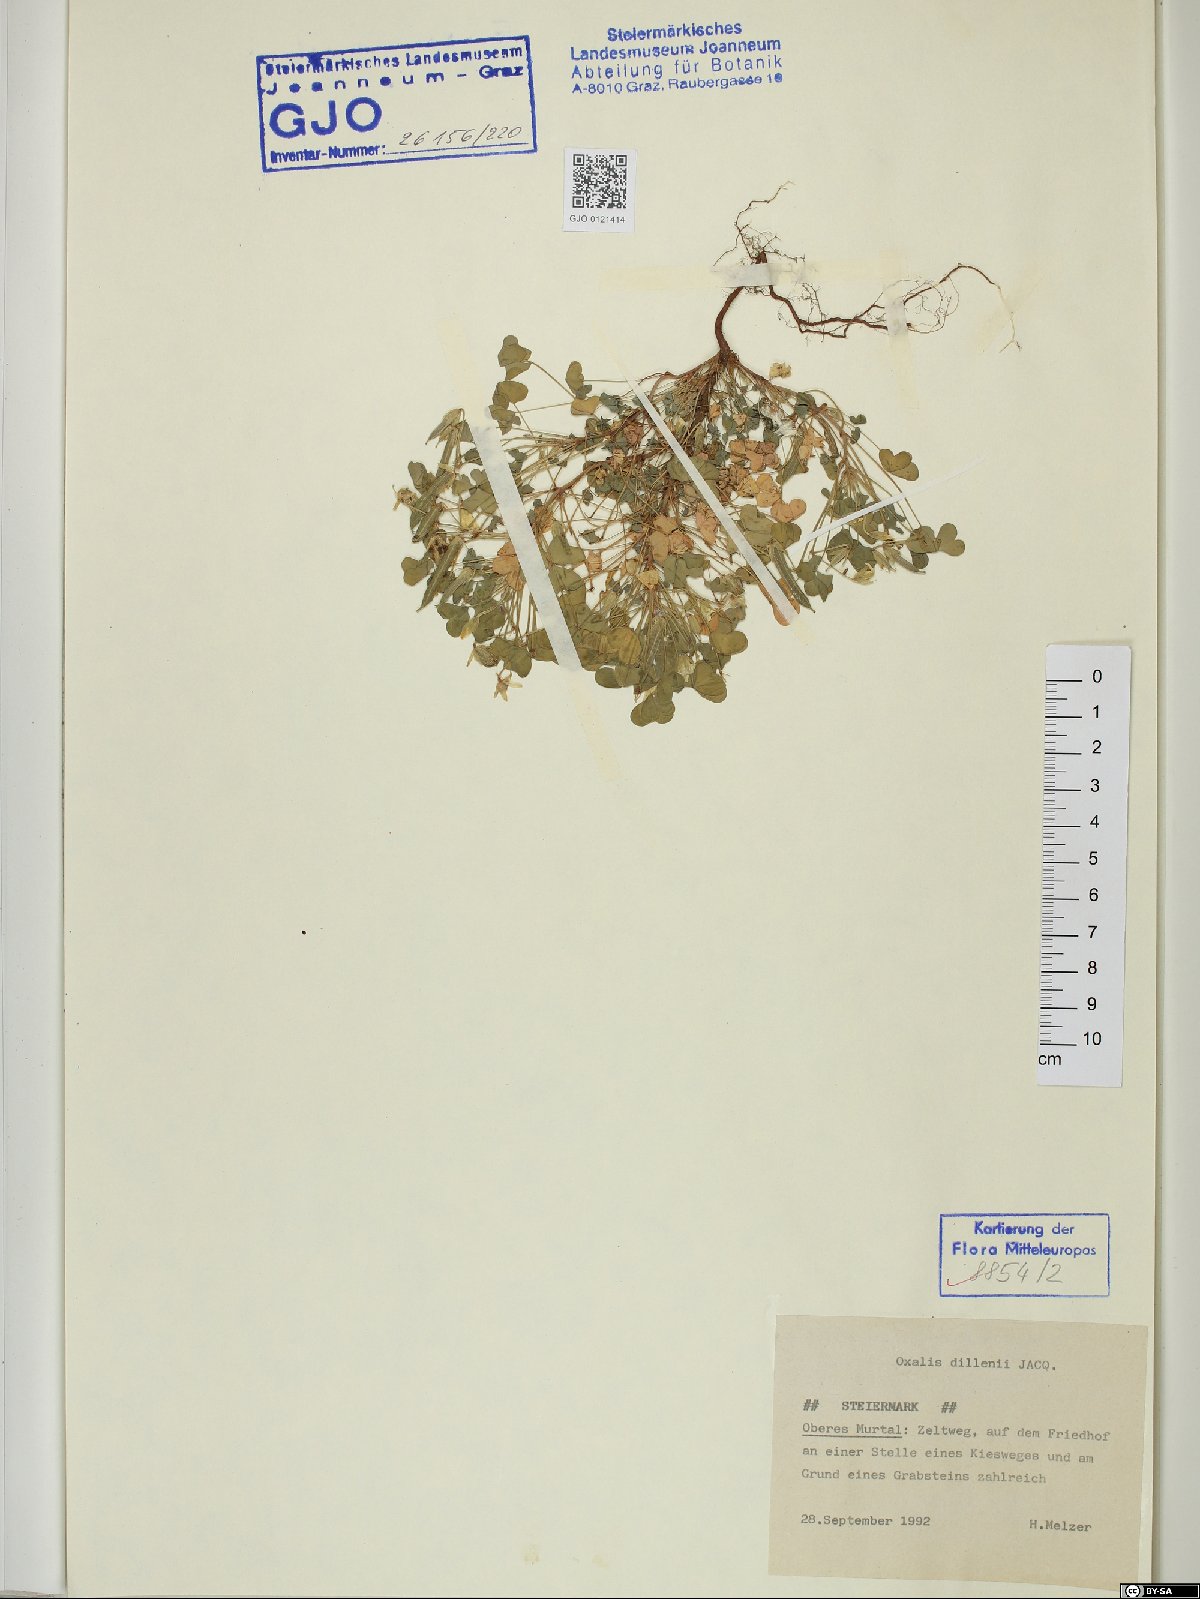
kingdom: Plantae
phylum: Tracheophyta
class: Magnoliopsida
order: Oxalidales
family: Oxalidaceae
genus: Oxalis
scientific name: Oxalis dillenii
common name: Sussex yellow-sorrel
